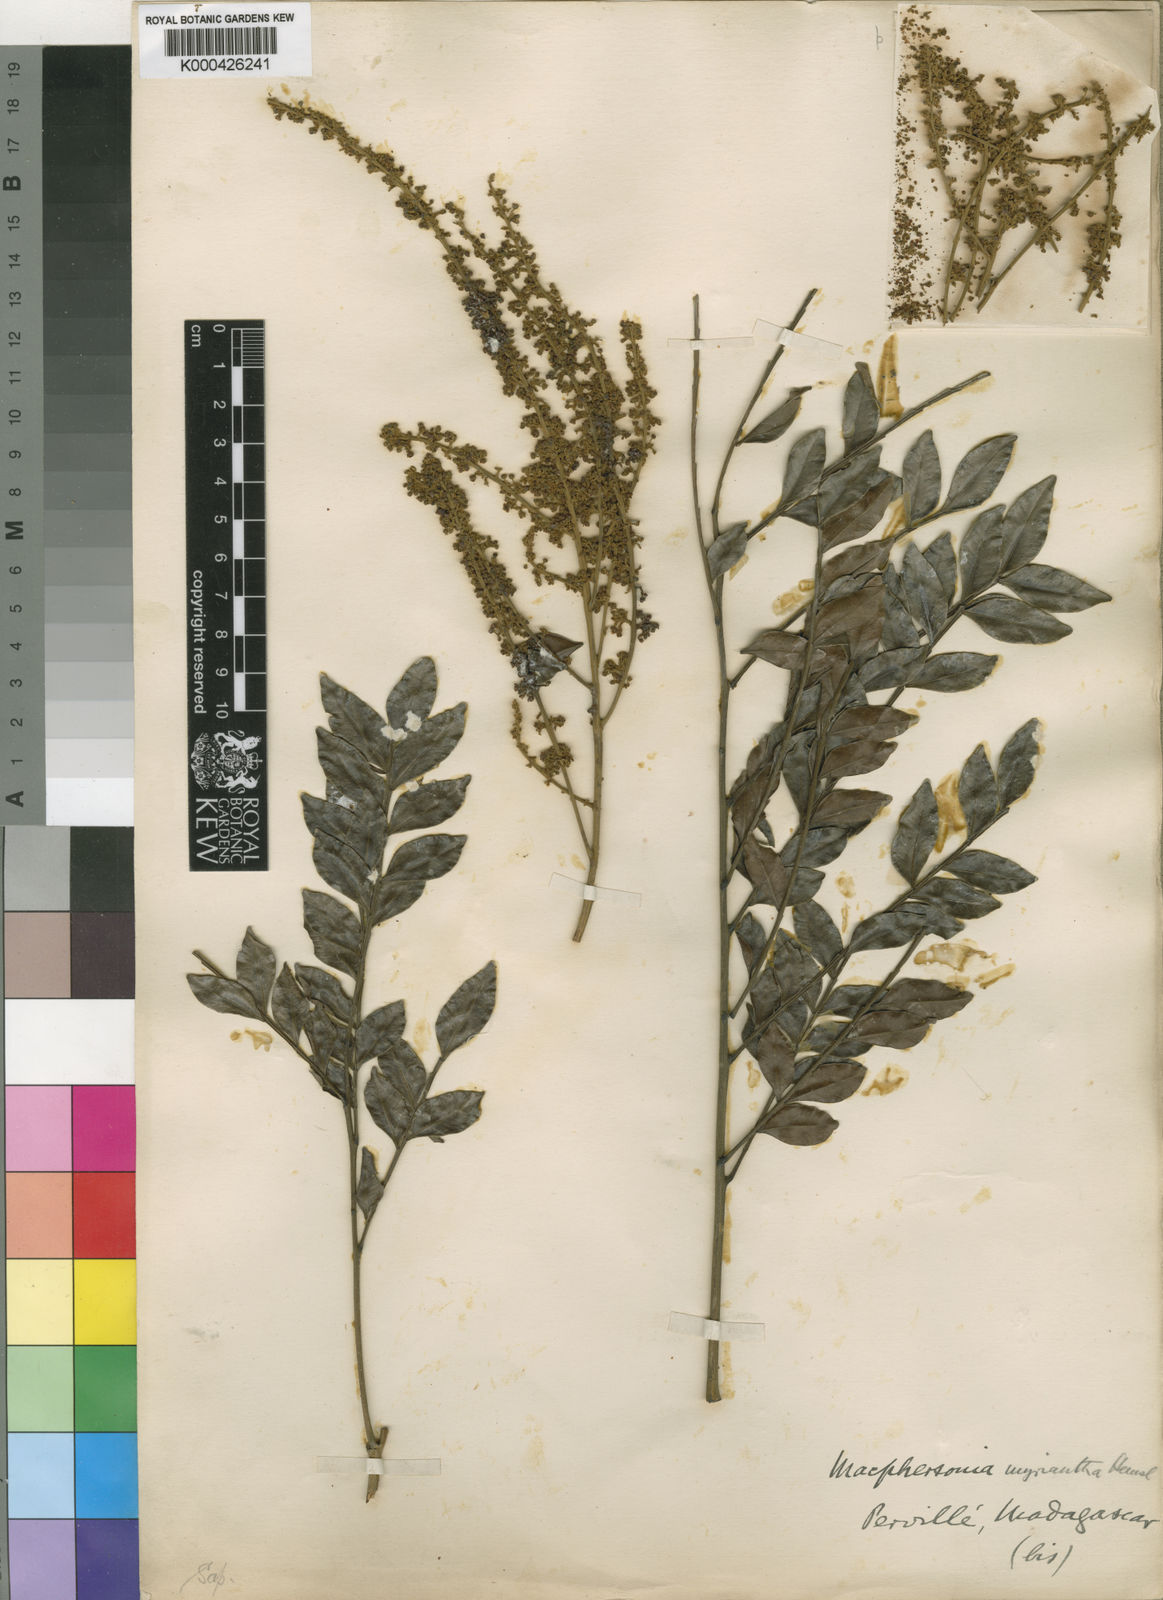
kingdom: Plantae
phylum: Tracheophyta
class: Magnoliopsida
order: Sapindales
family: Sapindaceae
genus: Macphersonia
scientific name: Macphersonia madagascariensis
